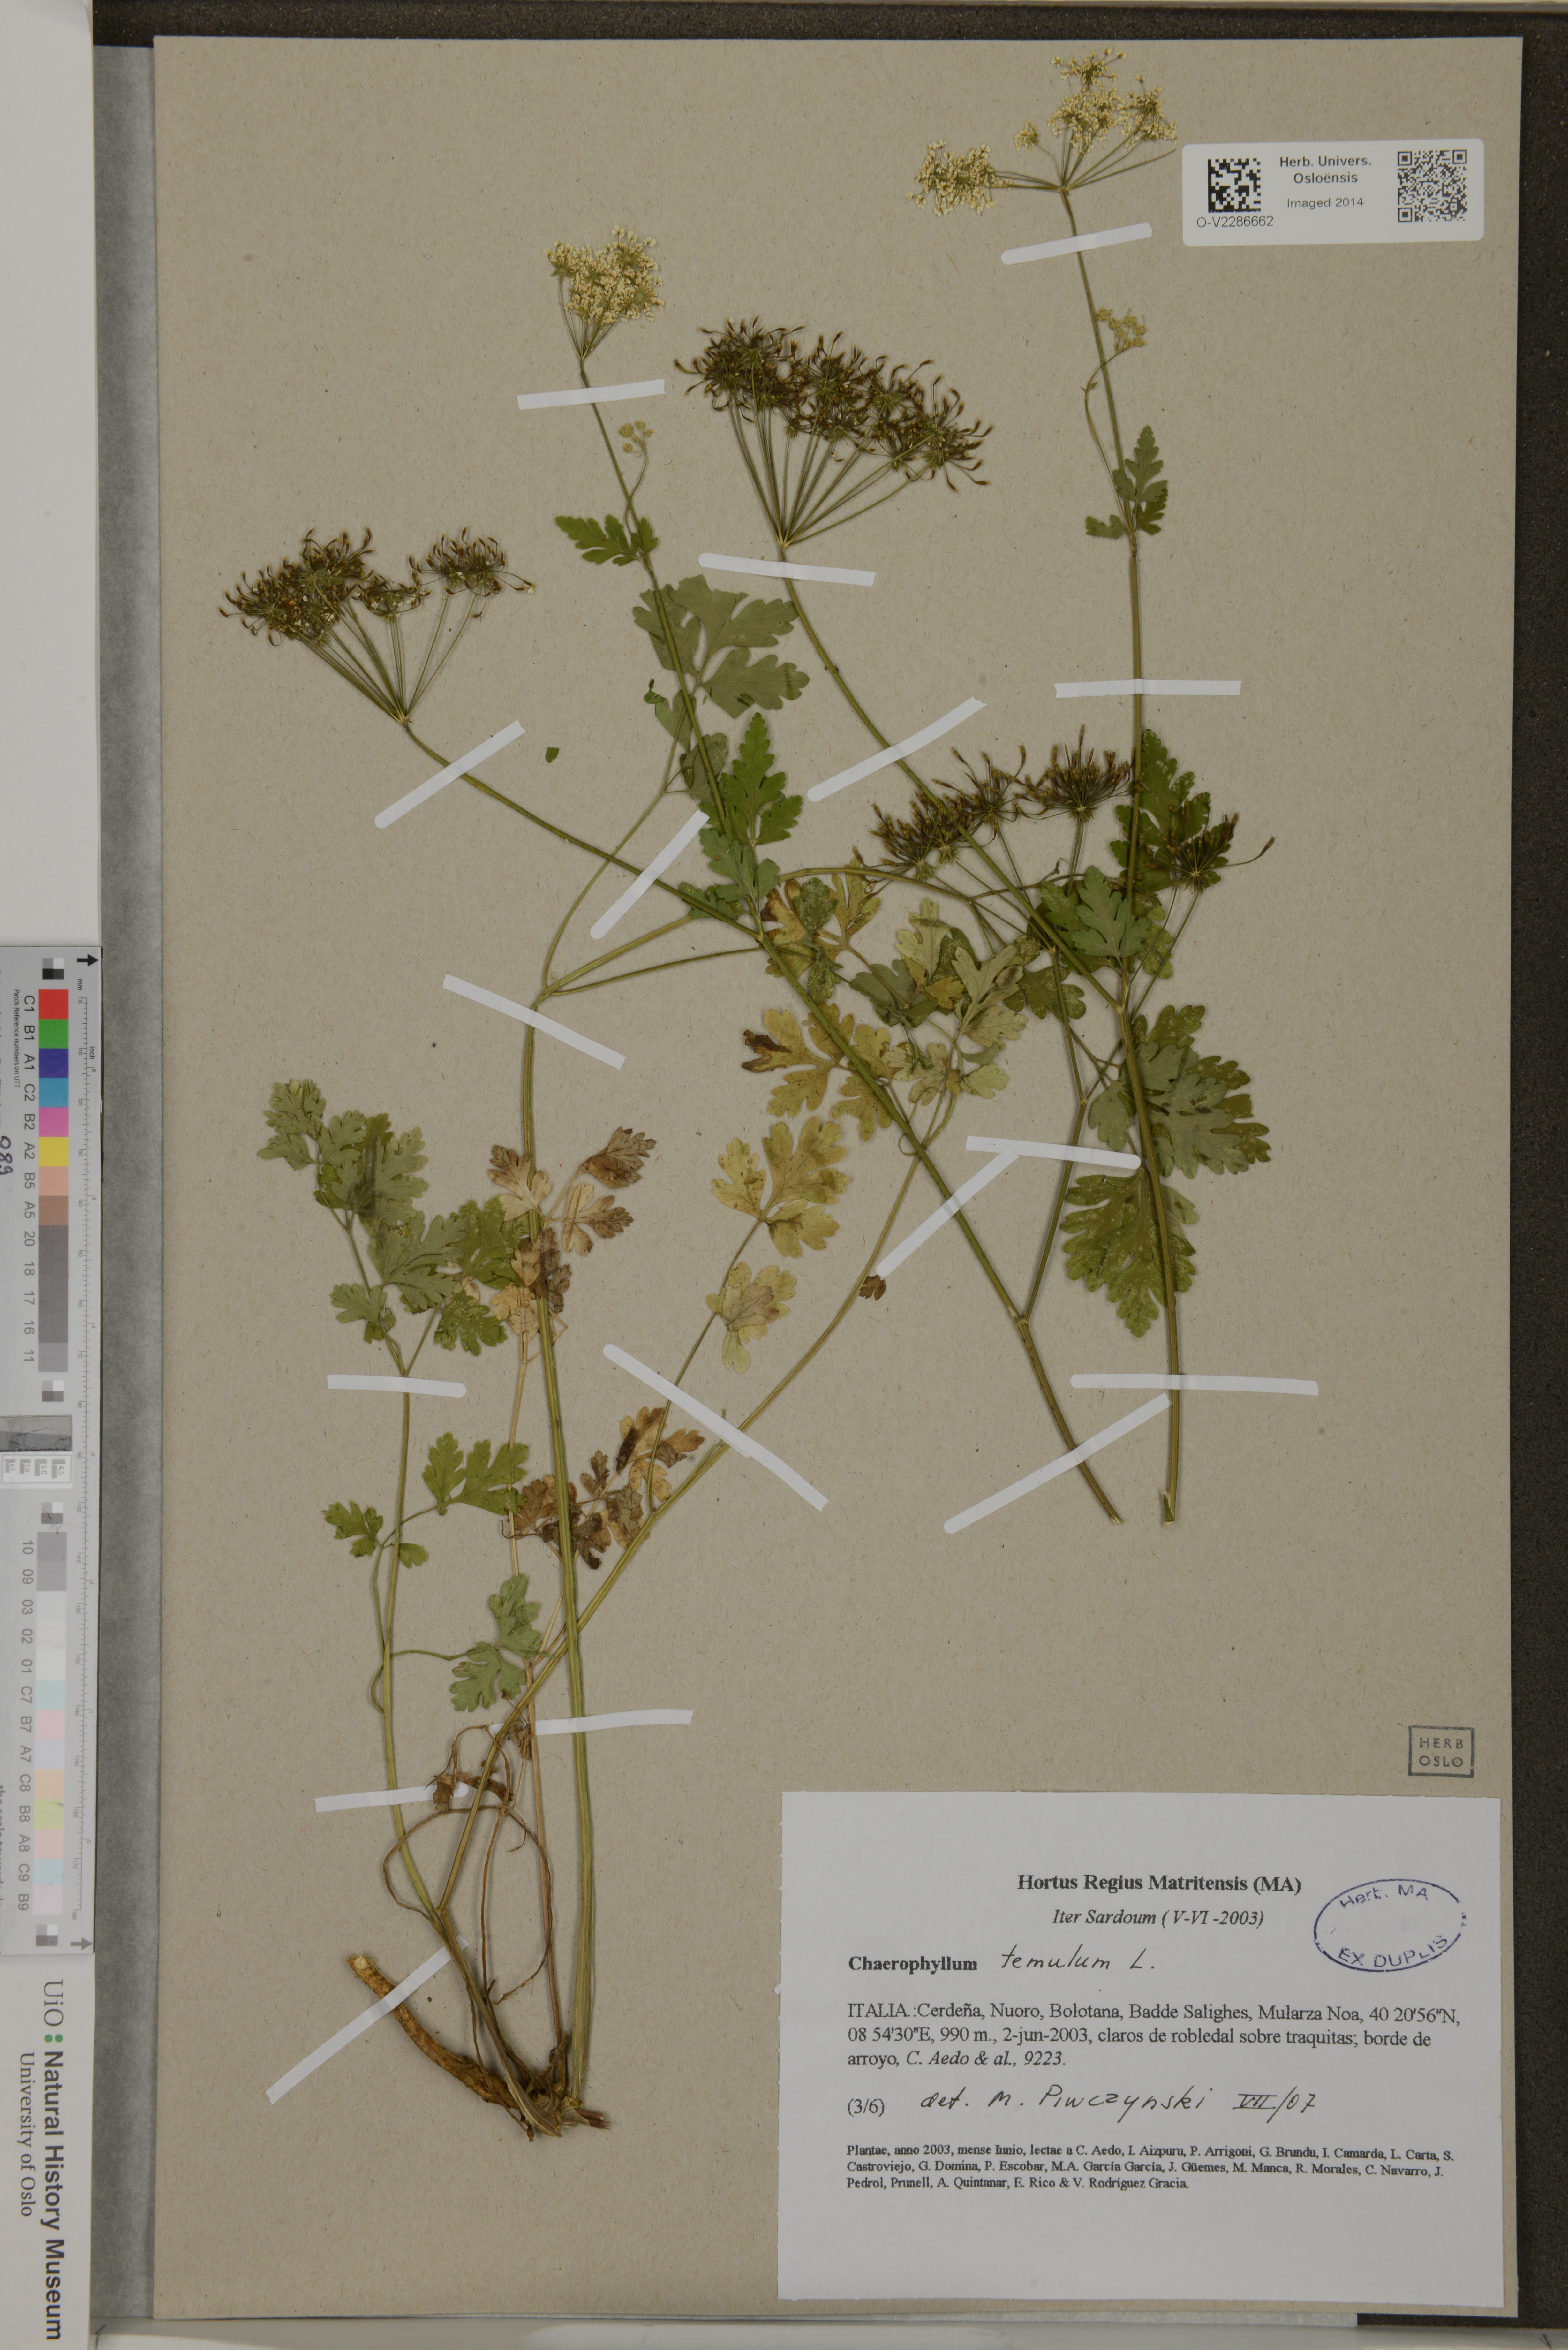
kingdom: Plantae
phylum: Tracheophyta
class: Magnoliopsida
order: Apiales
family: Apiaceae
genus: Chaerophyllum
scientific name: Chaerophyllum temulum
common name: Rough chervil
